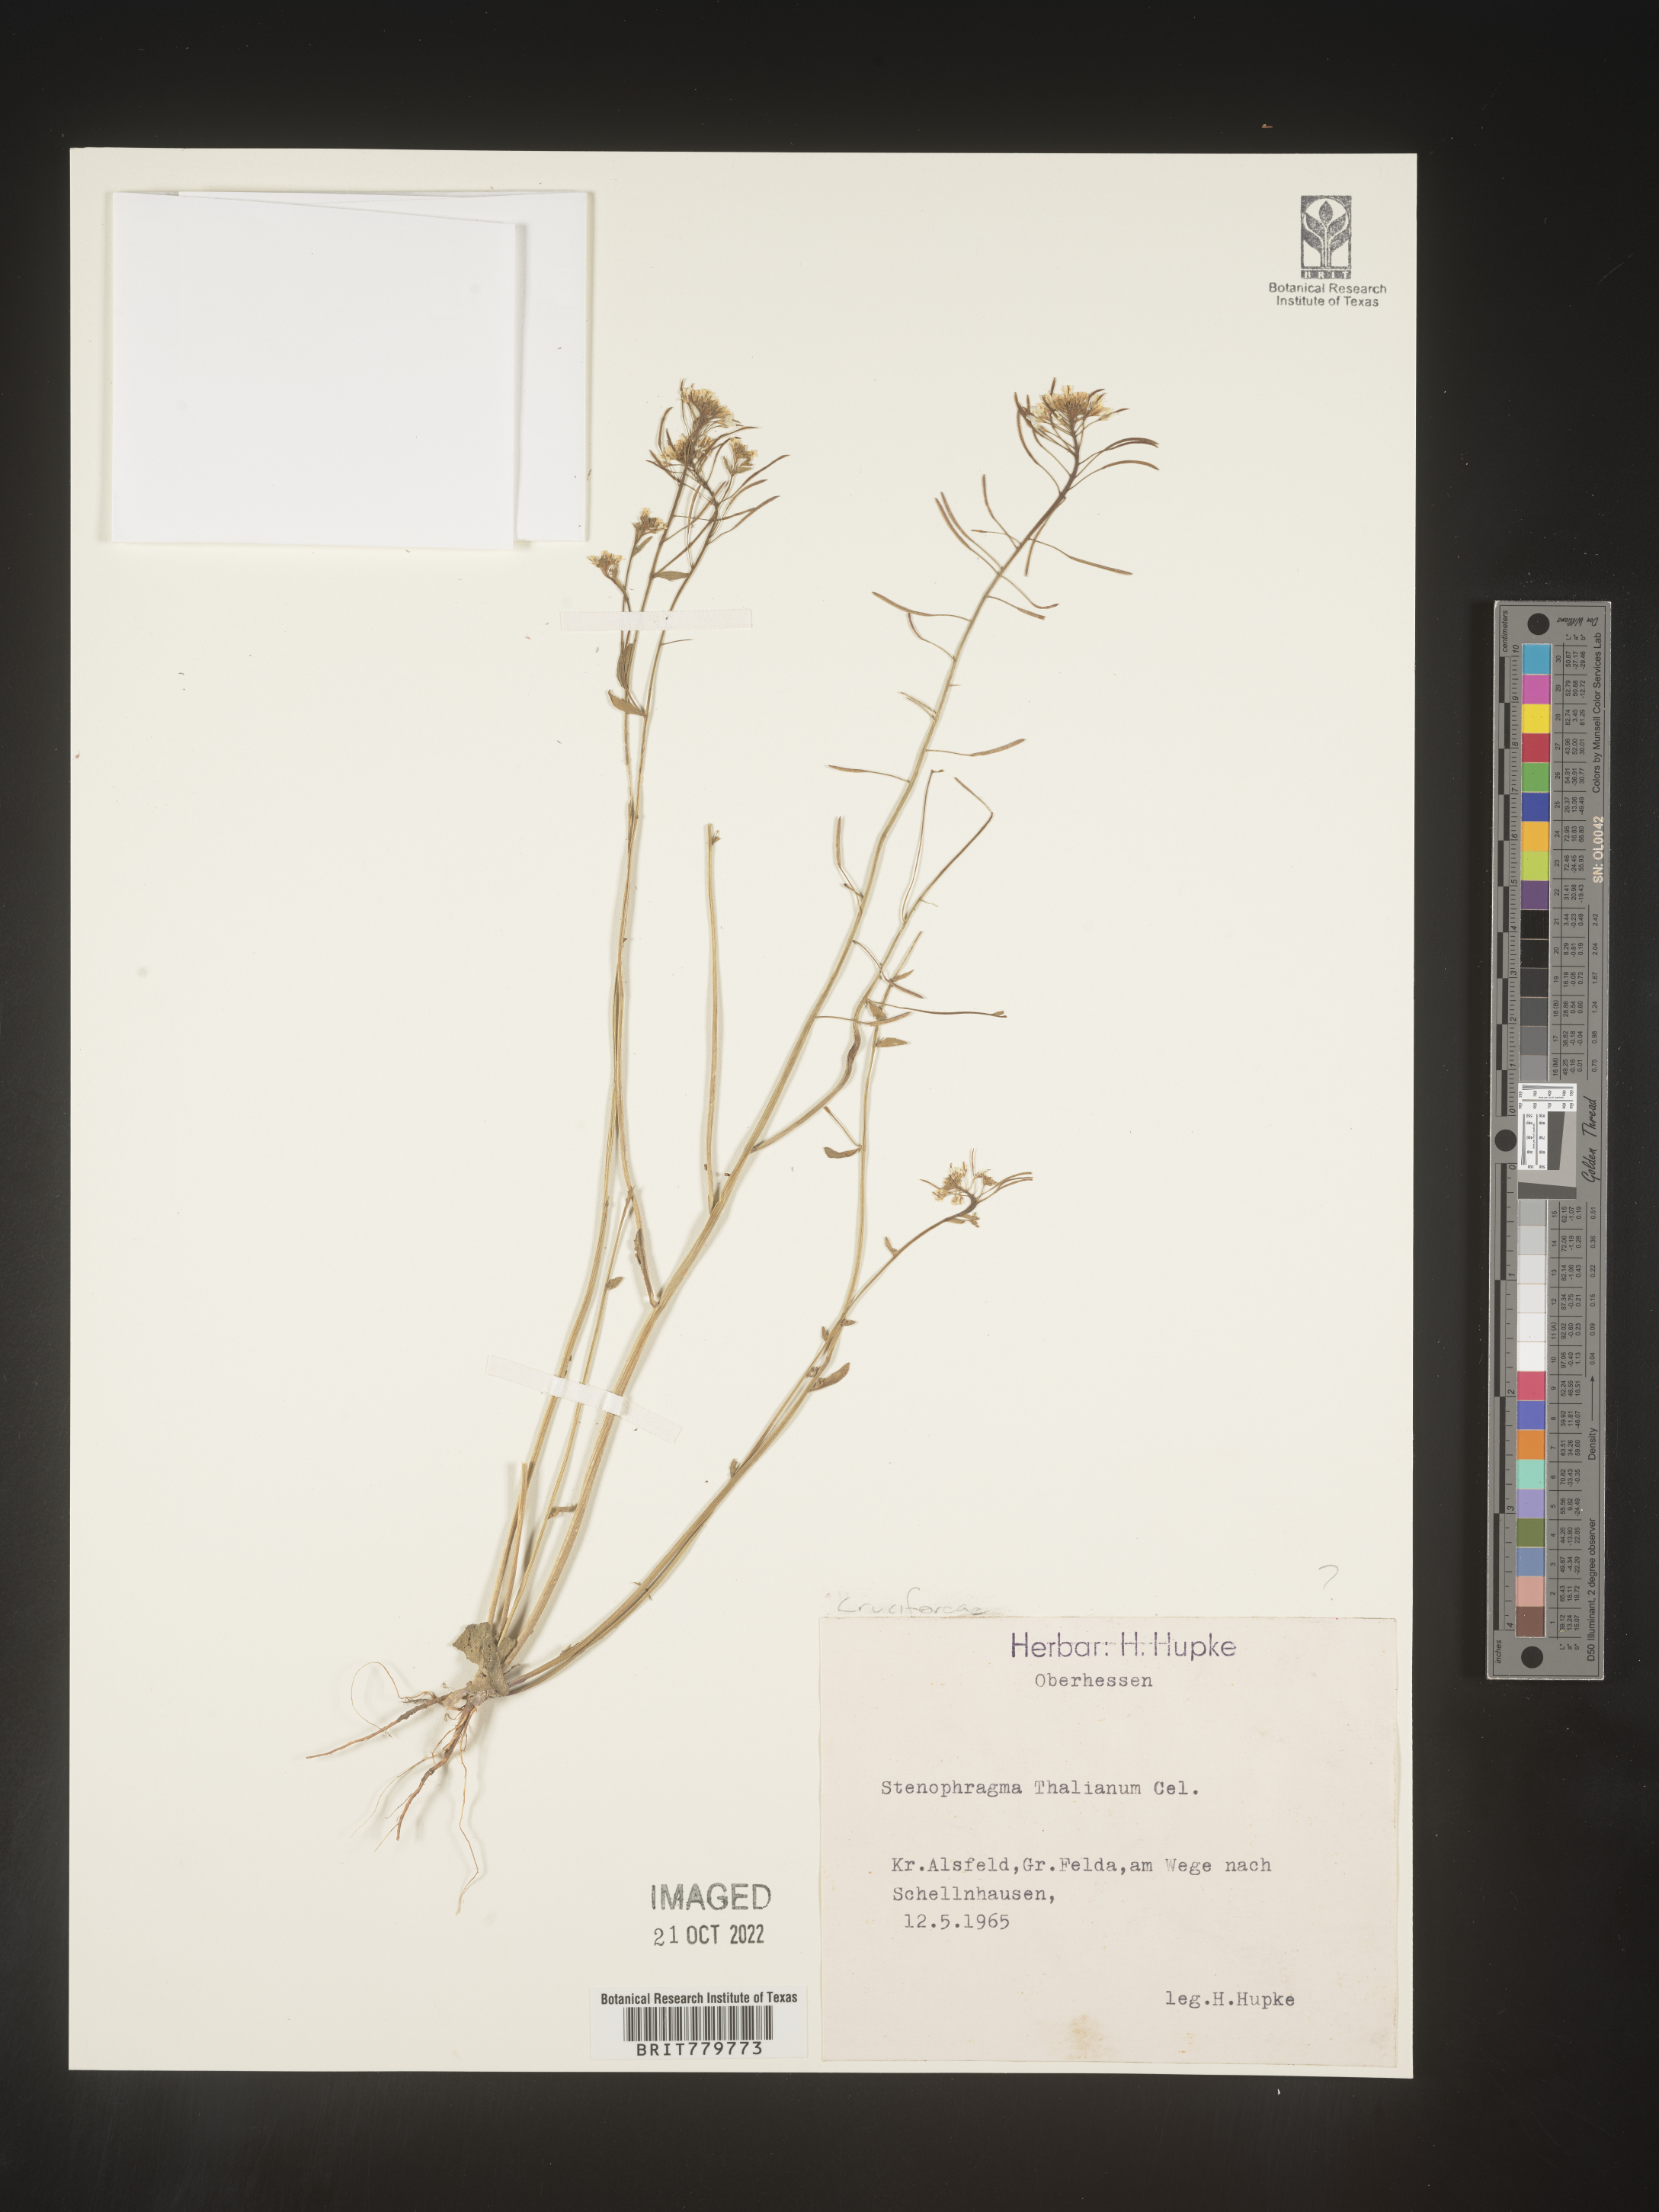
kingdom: Plantae
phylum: Tracheophyta
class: Magnoliopsida
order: Brassicales
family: Brassicaceae
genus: Crucihimalaya
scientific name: Crucihimalaya bursifolia
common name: Soft fissurewort
